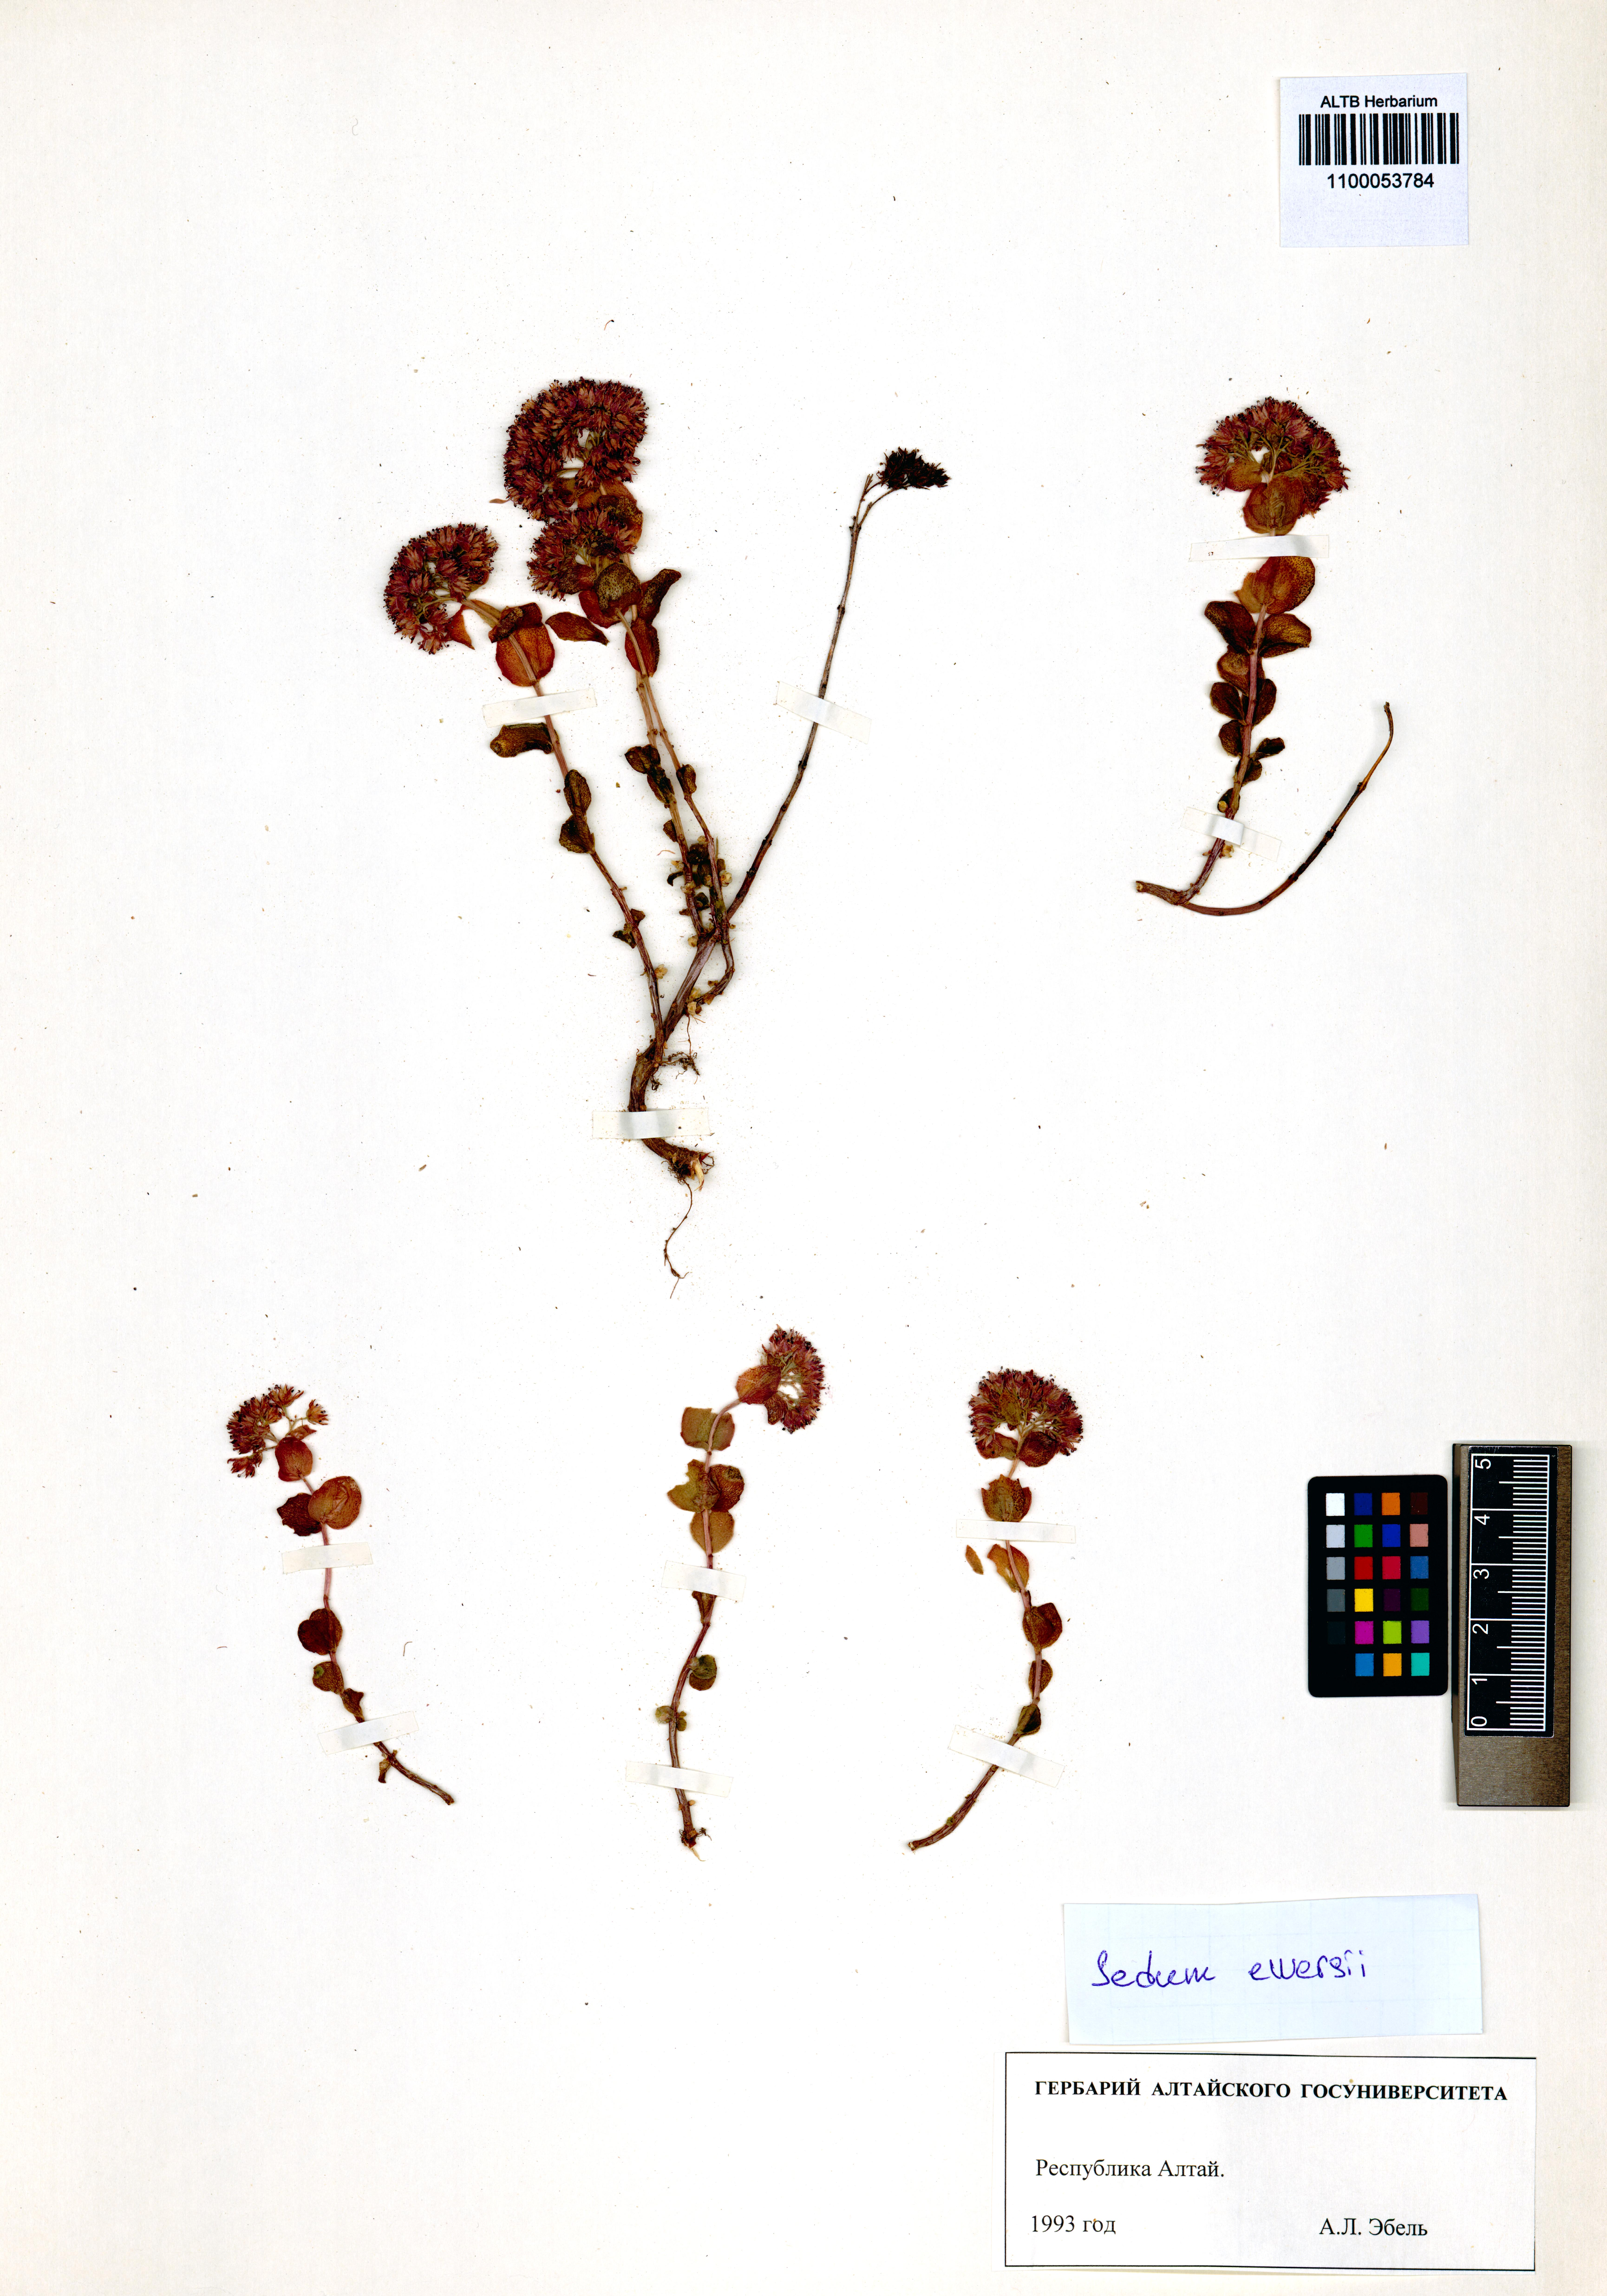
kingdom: Plantae
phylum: Tracheophyta
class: Magnoliopsida
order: Saxifragales
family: Crassulaceae
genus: Hylotelephium
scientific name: Hylotelephium ewersii
